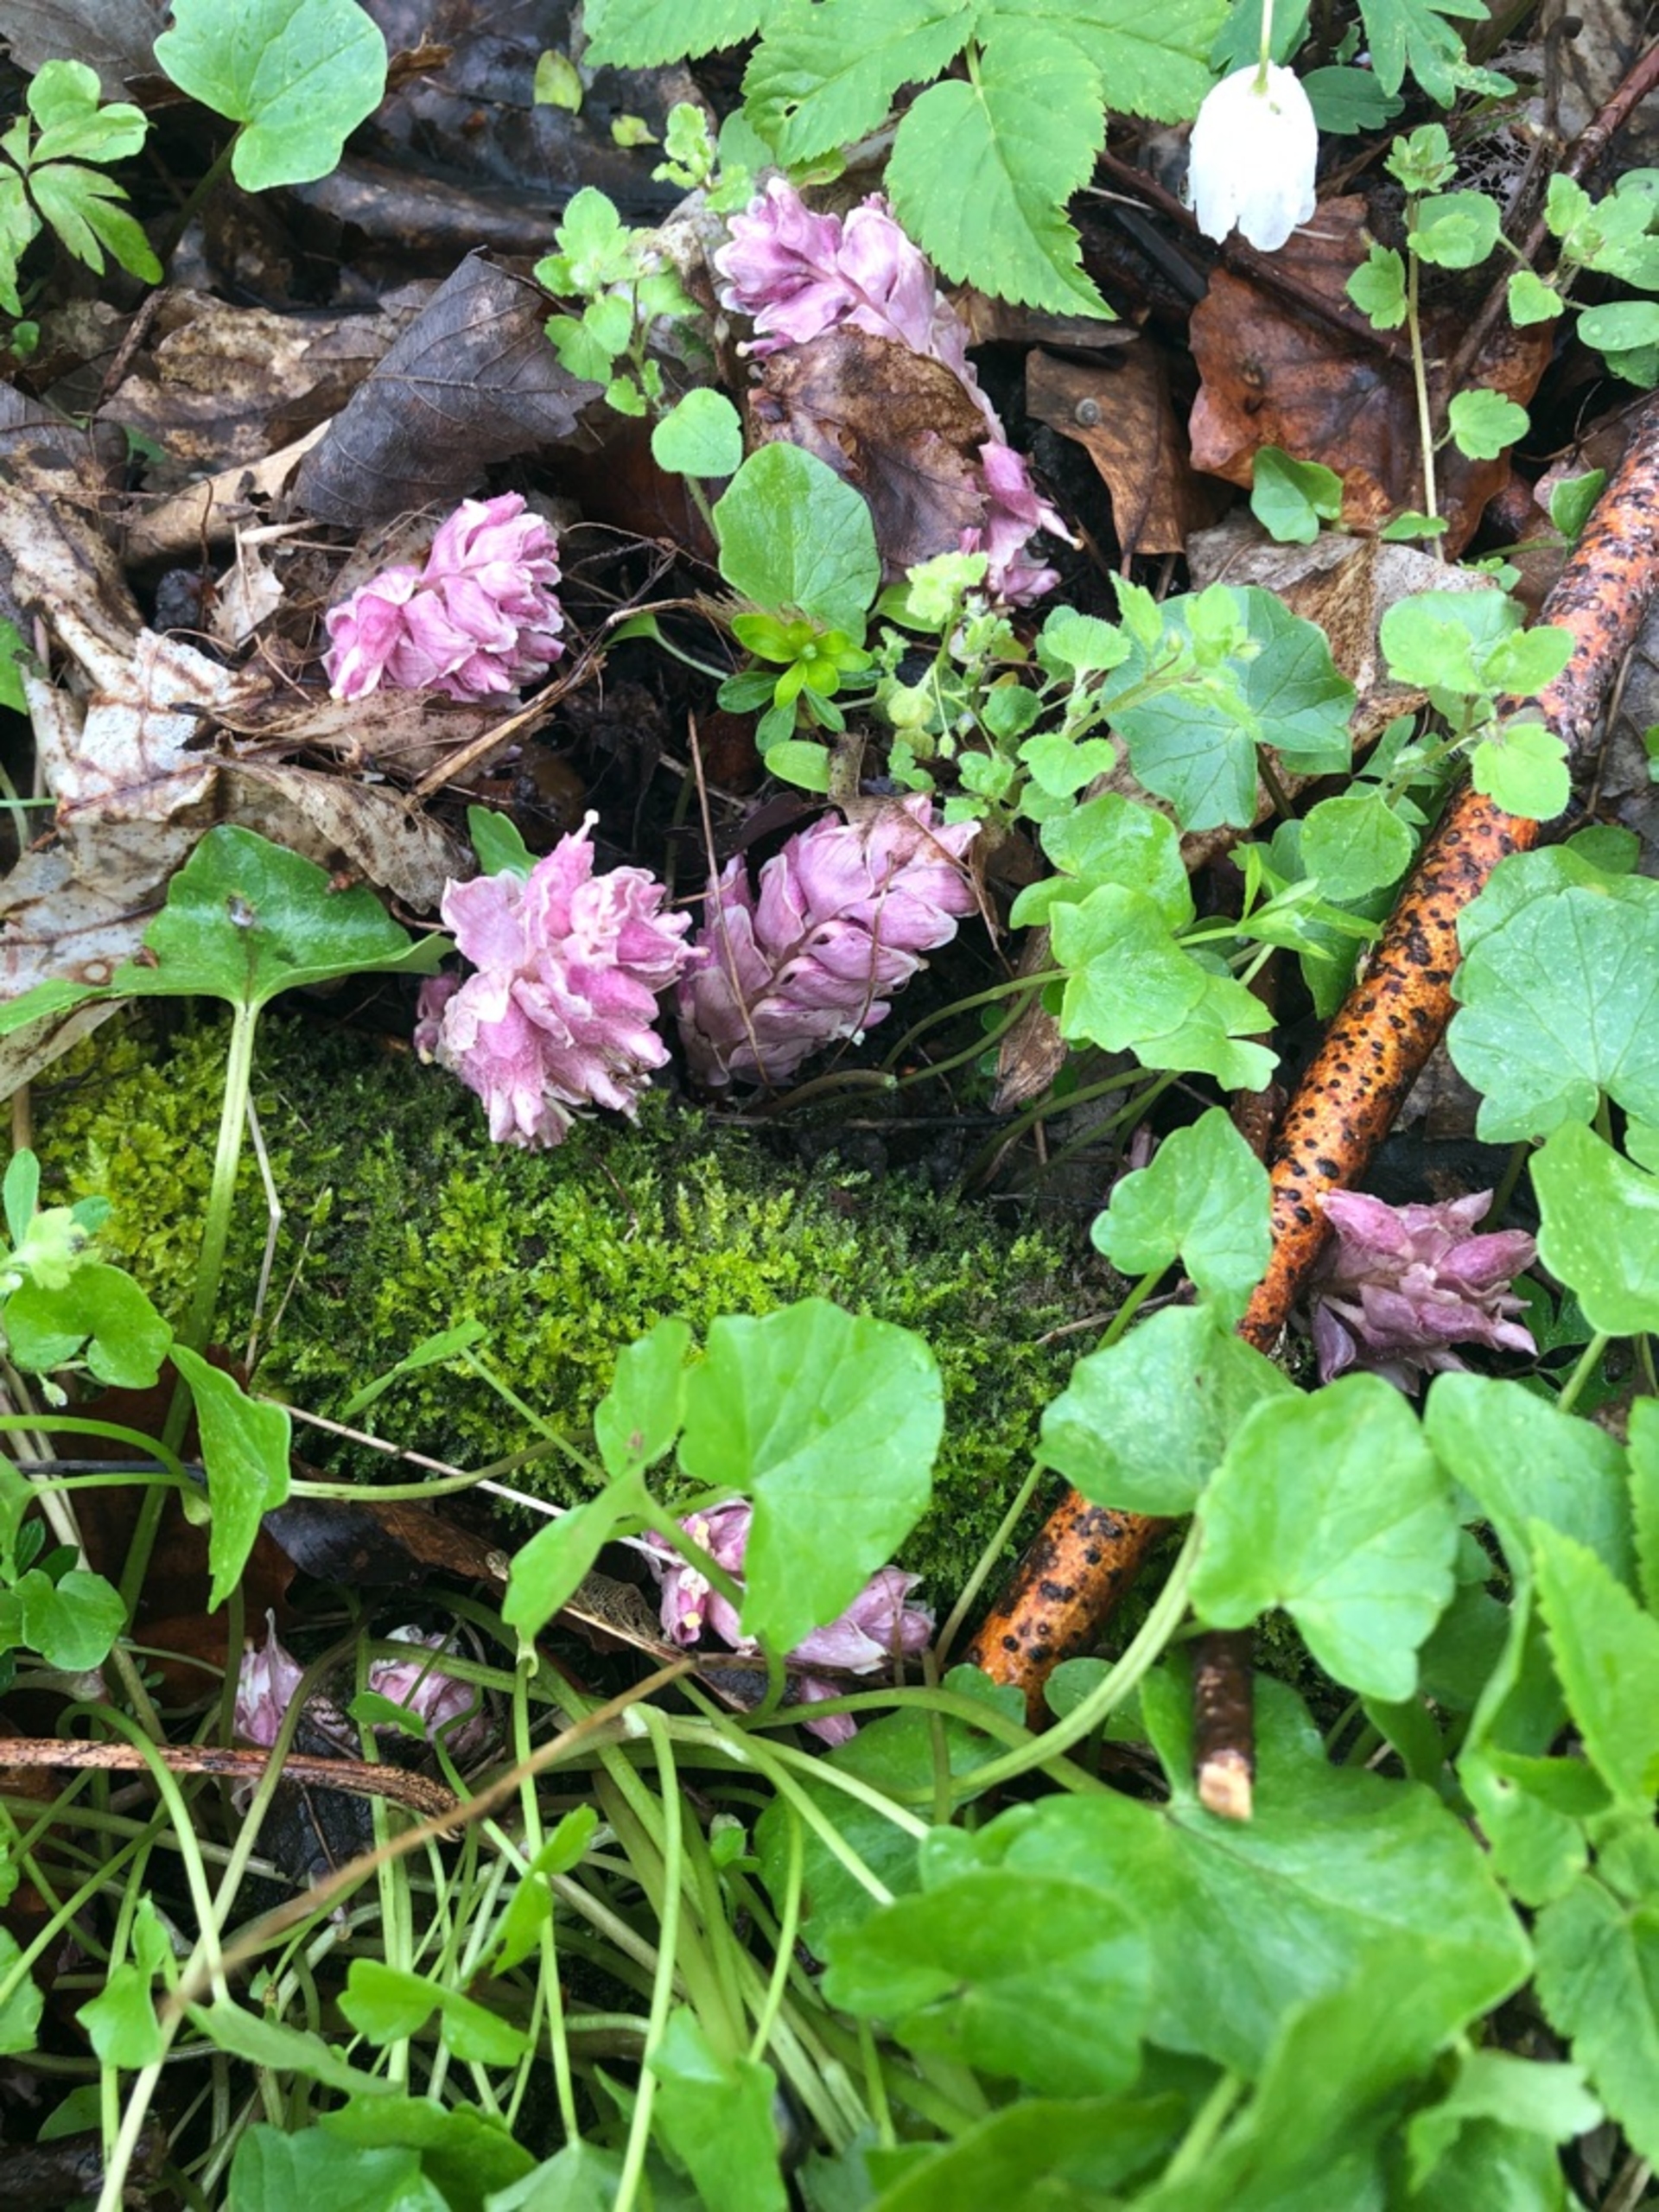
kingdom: Plantae
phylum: Tracheophyta
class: Magnoliopsida
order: Lamiales
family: Orobanchaceae
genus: Lathraea
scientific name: Lathraea squamaria
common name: Skælrod
